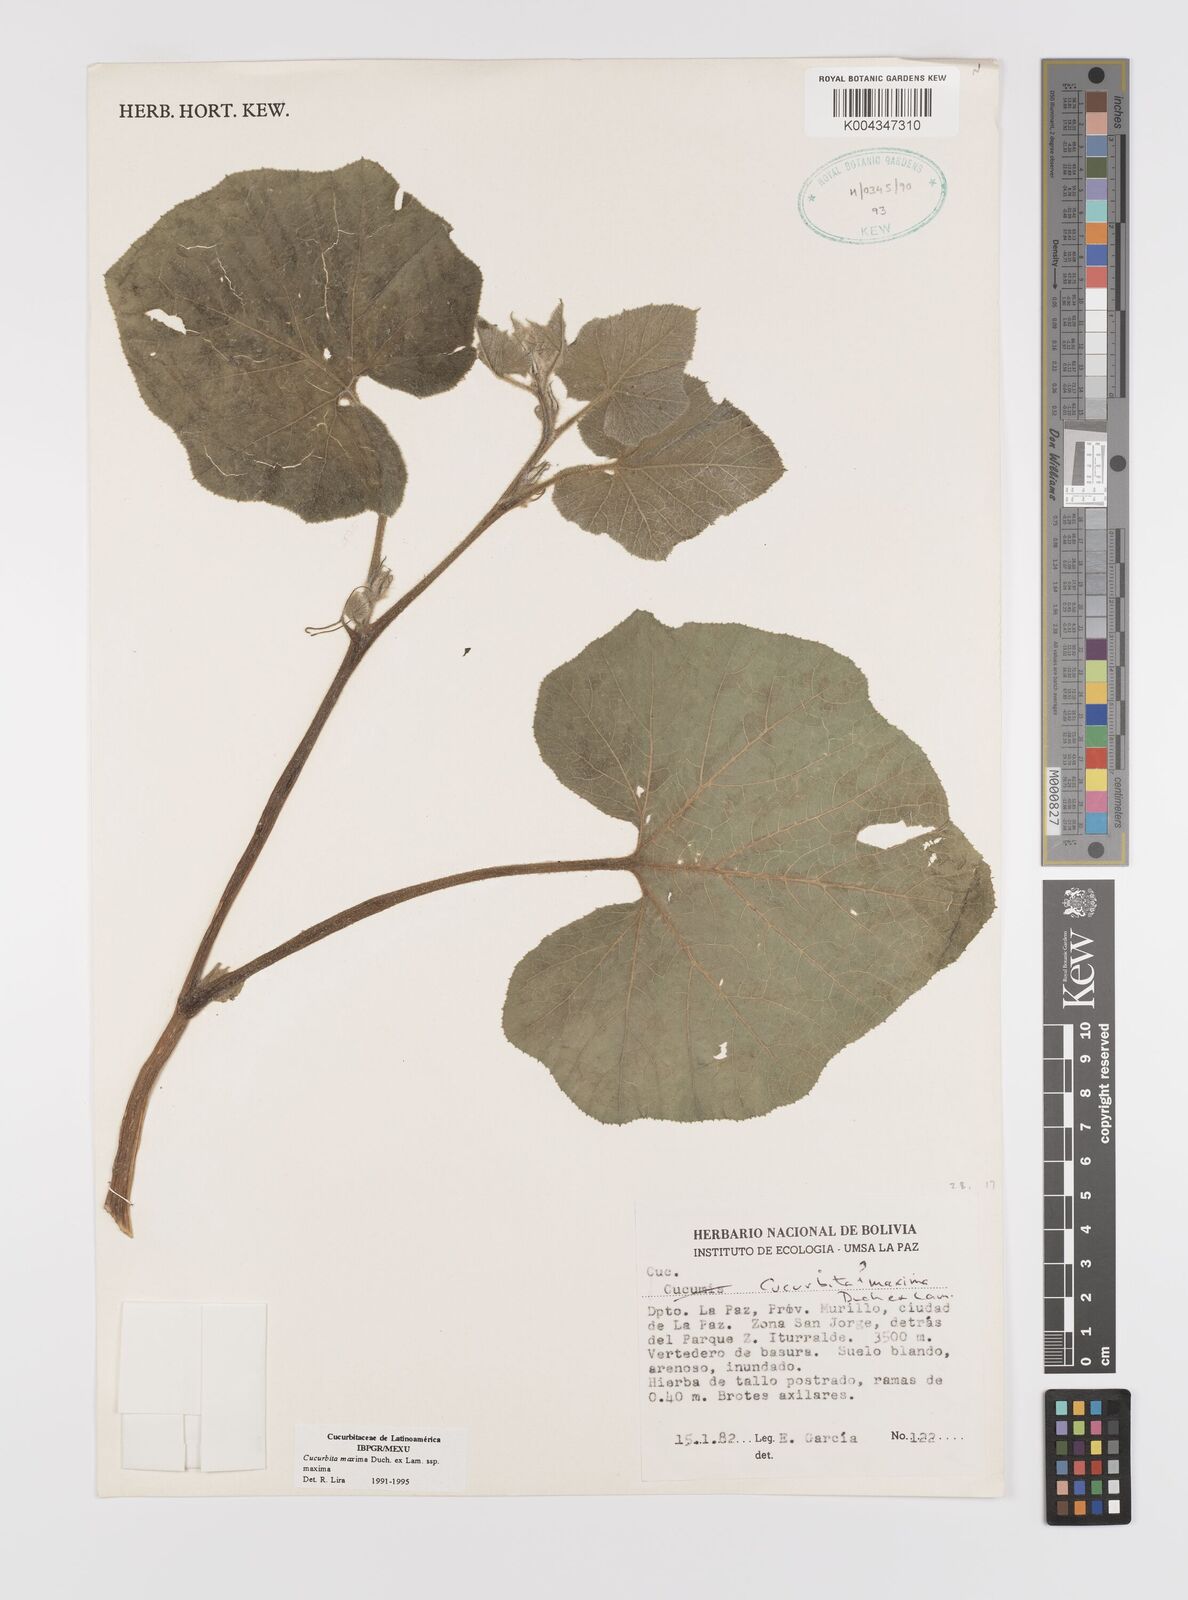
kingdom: Plantae
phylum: Tracheophyta
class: Magnoliopsida
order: Cucurbitales
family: Cucurbitaceae
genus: Cucurbita
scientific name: Cucurbita maxima
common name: Pumpkin
